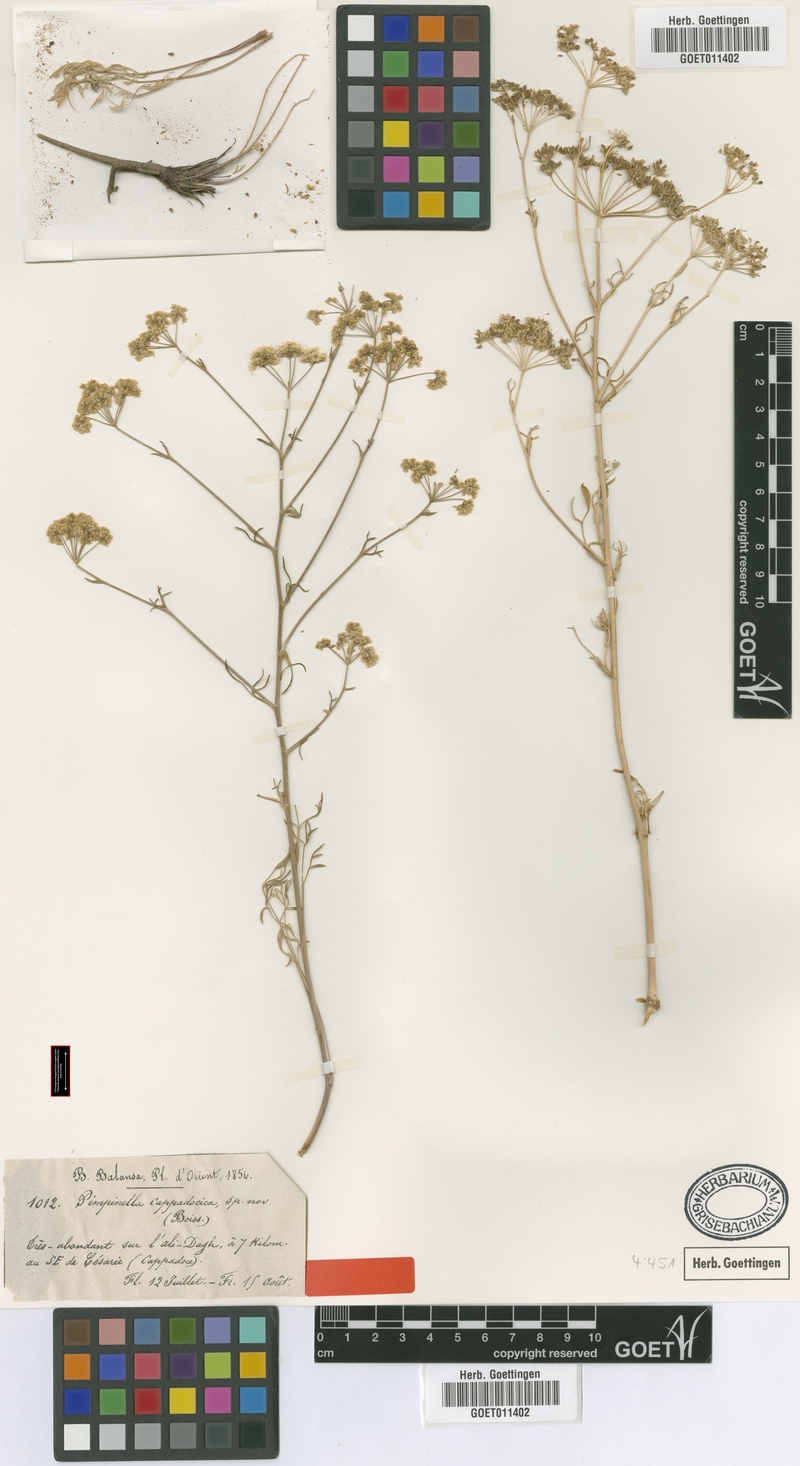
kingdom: Plantae
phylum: Tracheophyta
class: Magnoliopsida
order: Apiales
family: Apiaceae
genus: Pimpinella
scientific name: Pimpinella corymbosa
